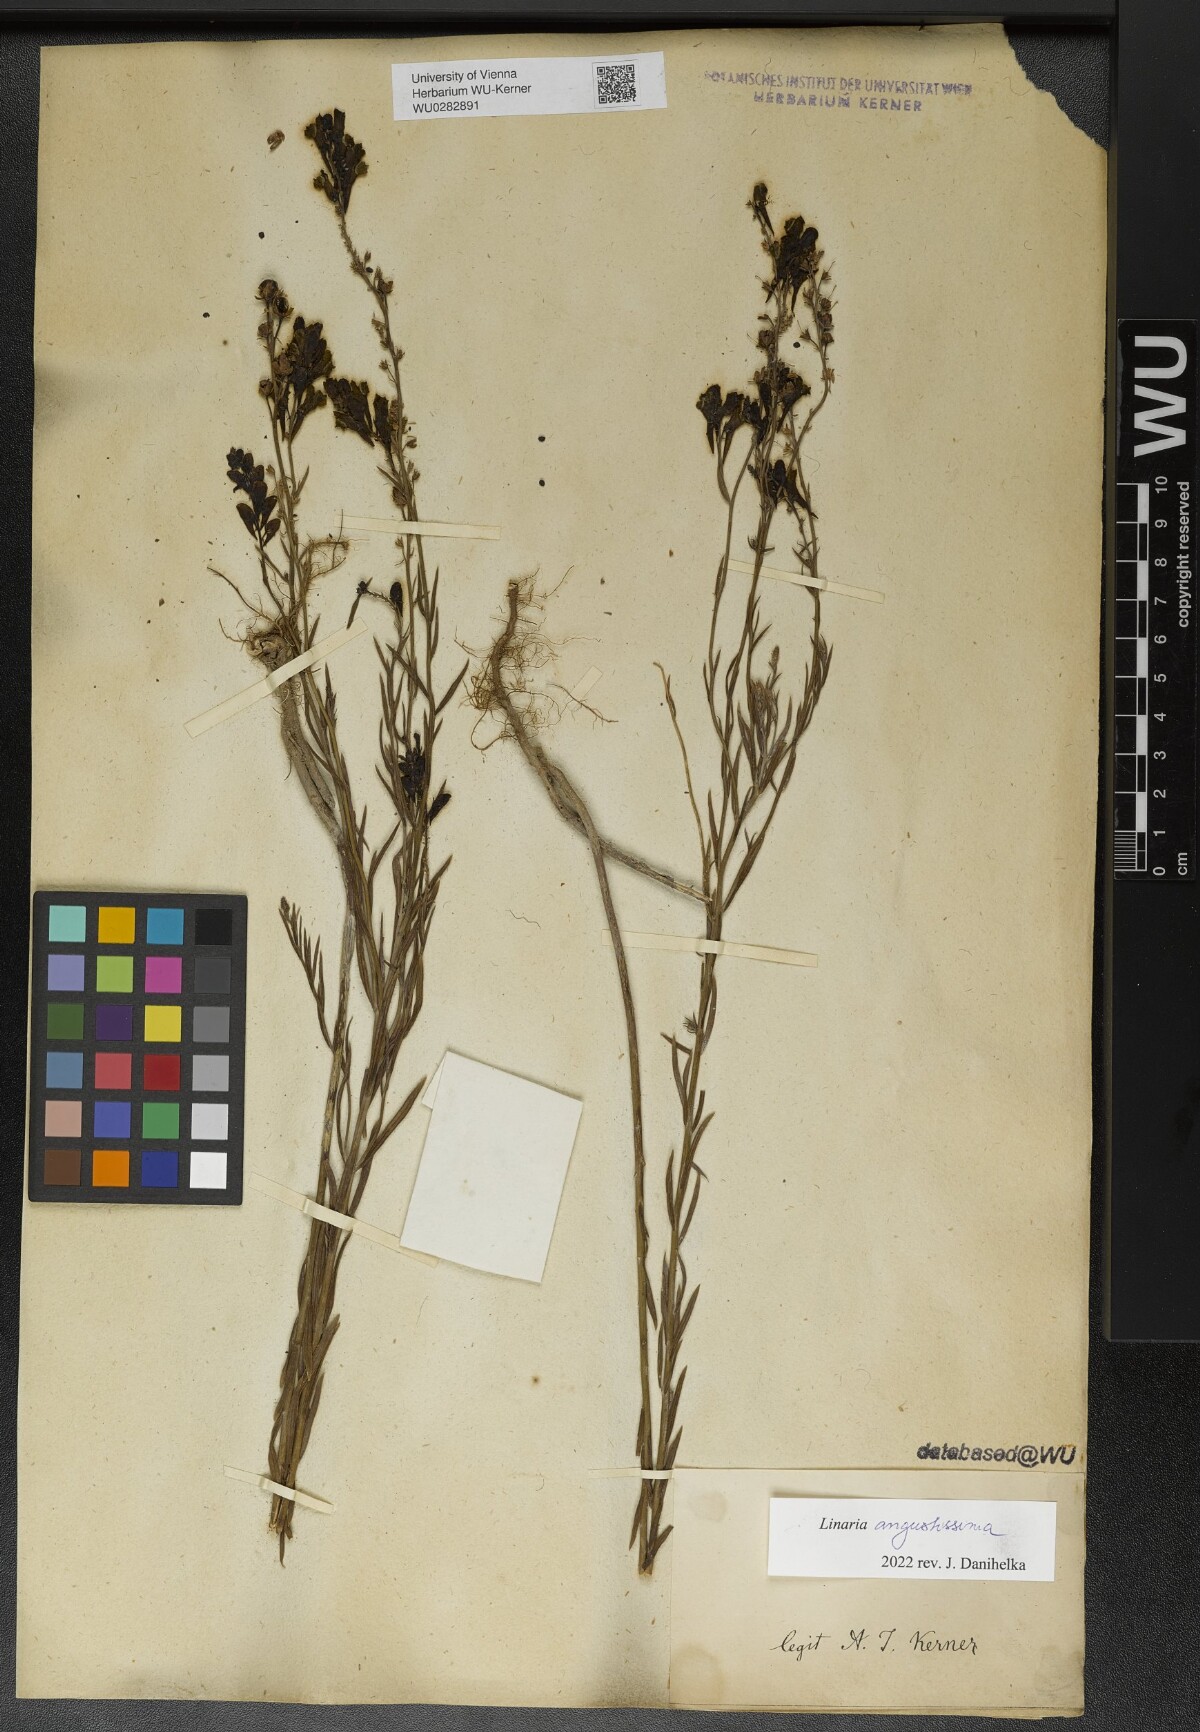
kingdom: Plantae
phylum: Tracheophyta
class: Magnoliopsida
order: Lamiales
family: Plantaginaceae
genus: Linaria
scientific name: Linaria angustissima
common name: Italian toadflax
